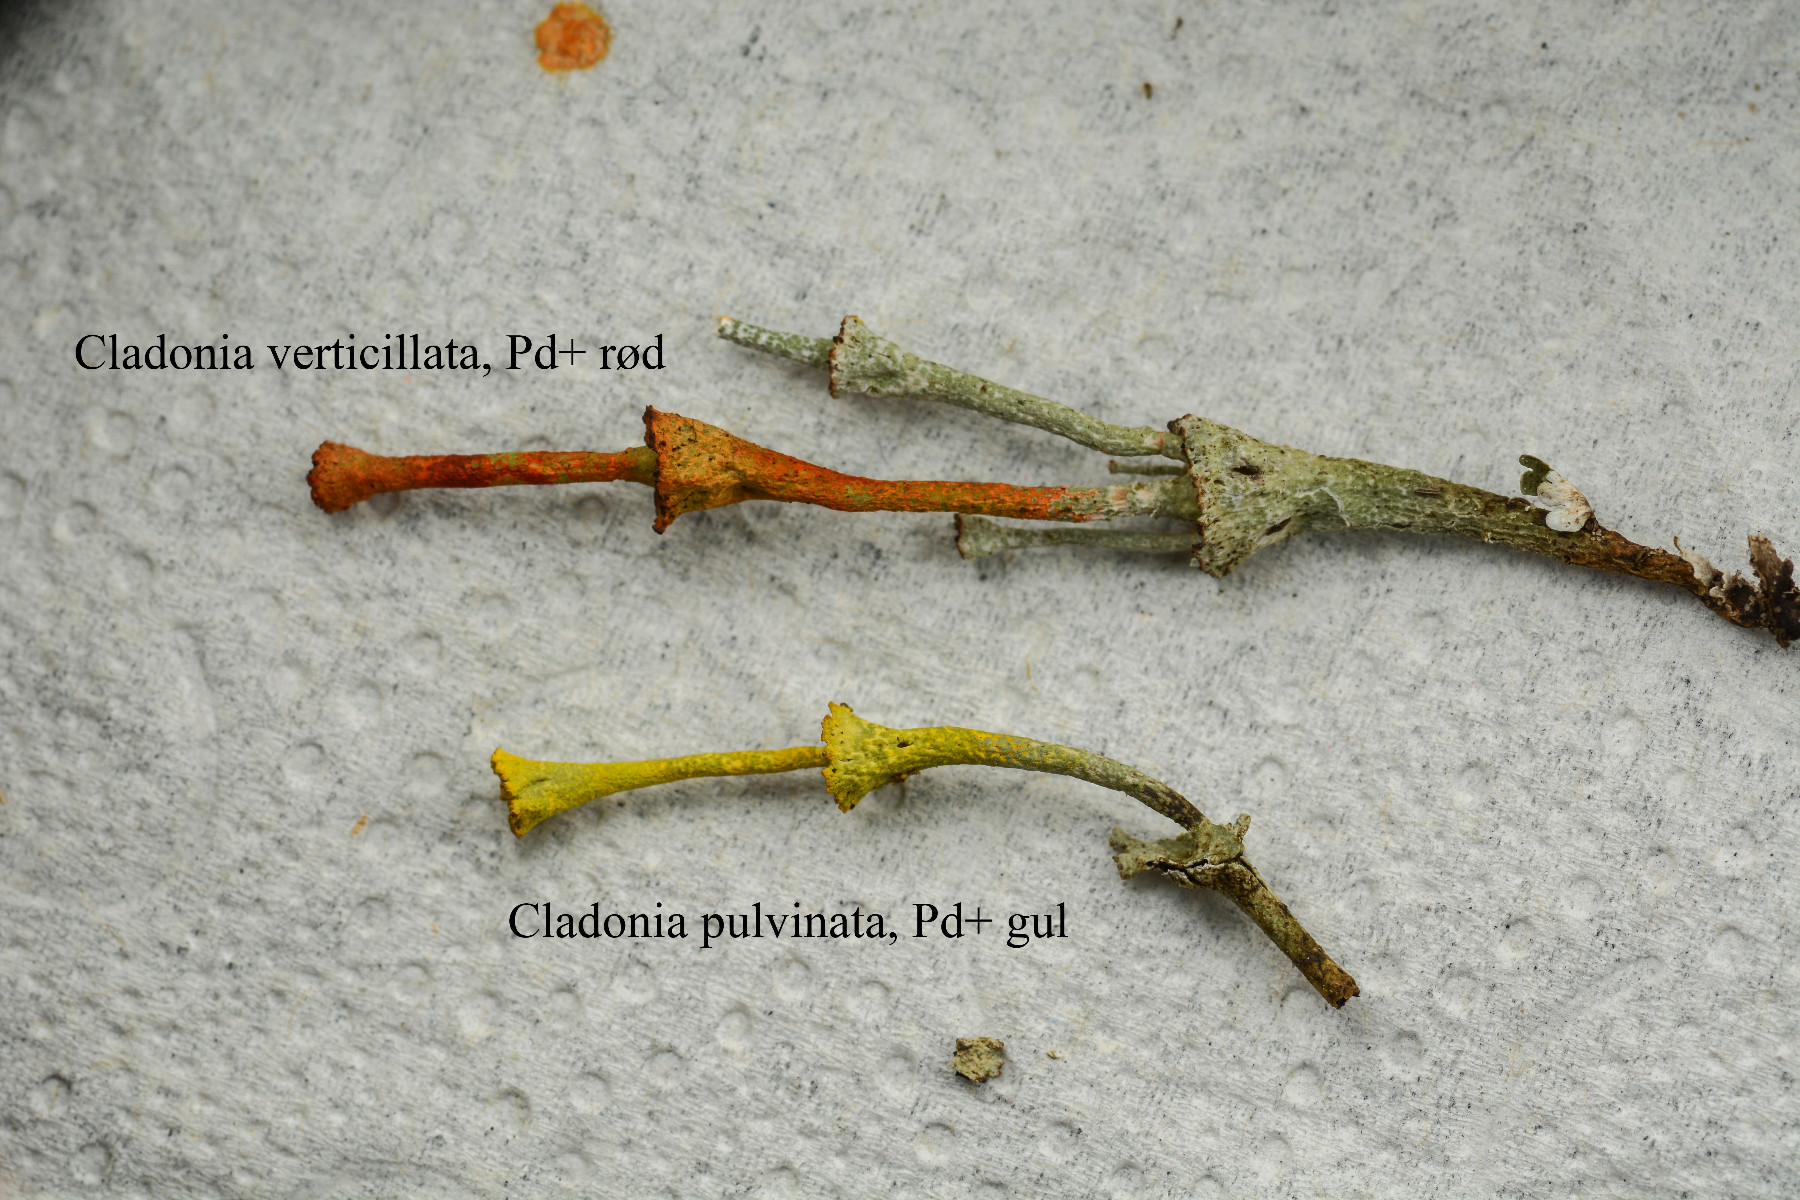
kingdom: Fungi
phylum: Ascomycota
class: Lecanoromycetes
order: Lecanorales
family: Cladoniaceae
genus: Cladonia
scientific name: Cladonia cervicornis
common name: etage-bægerlav
